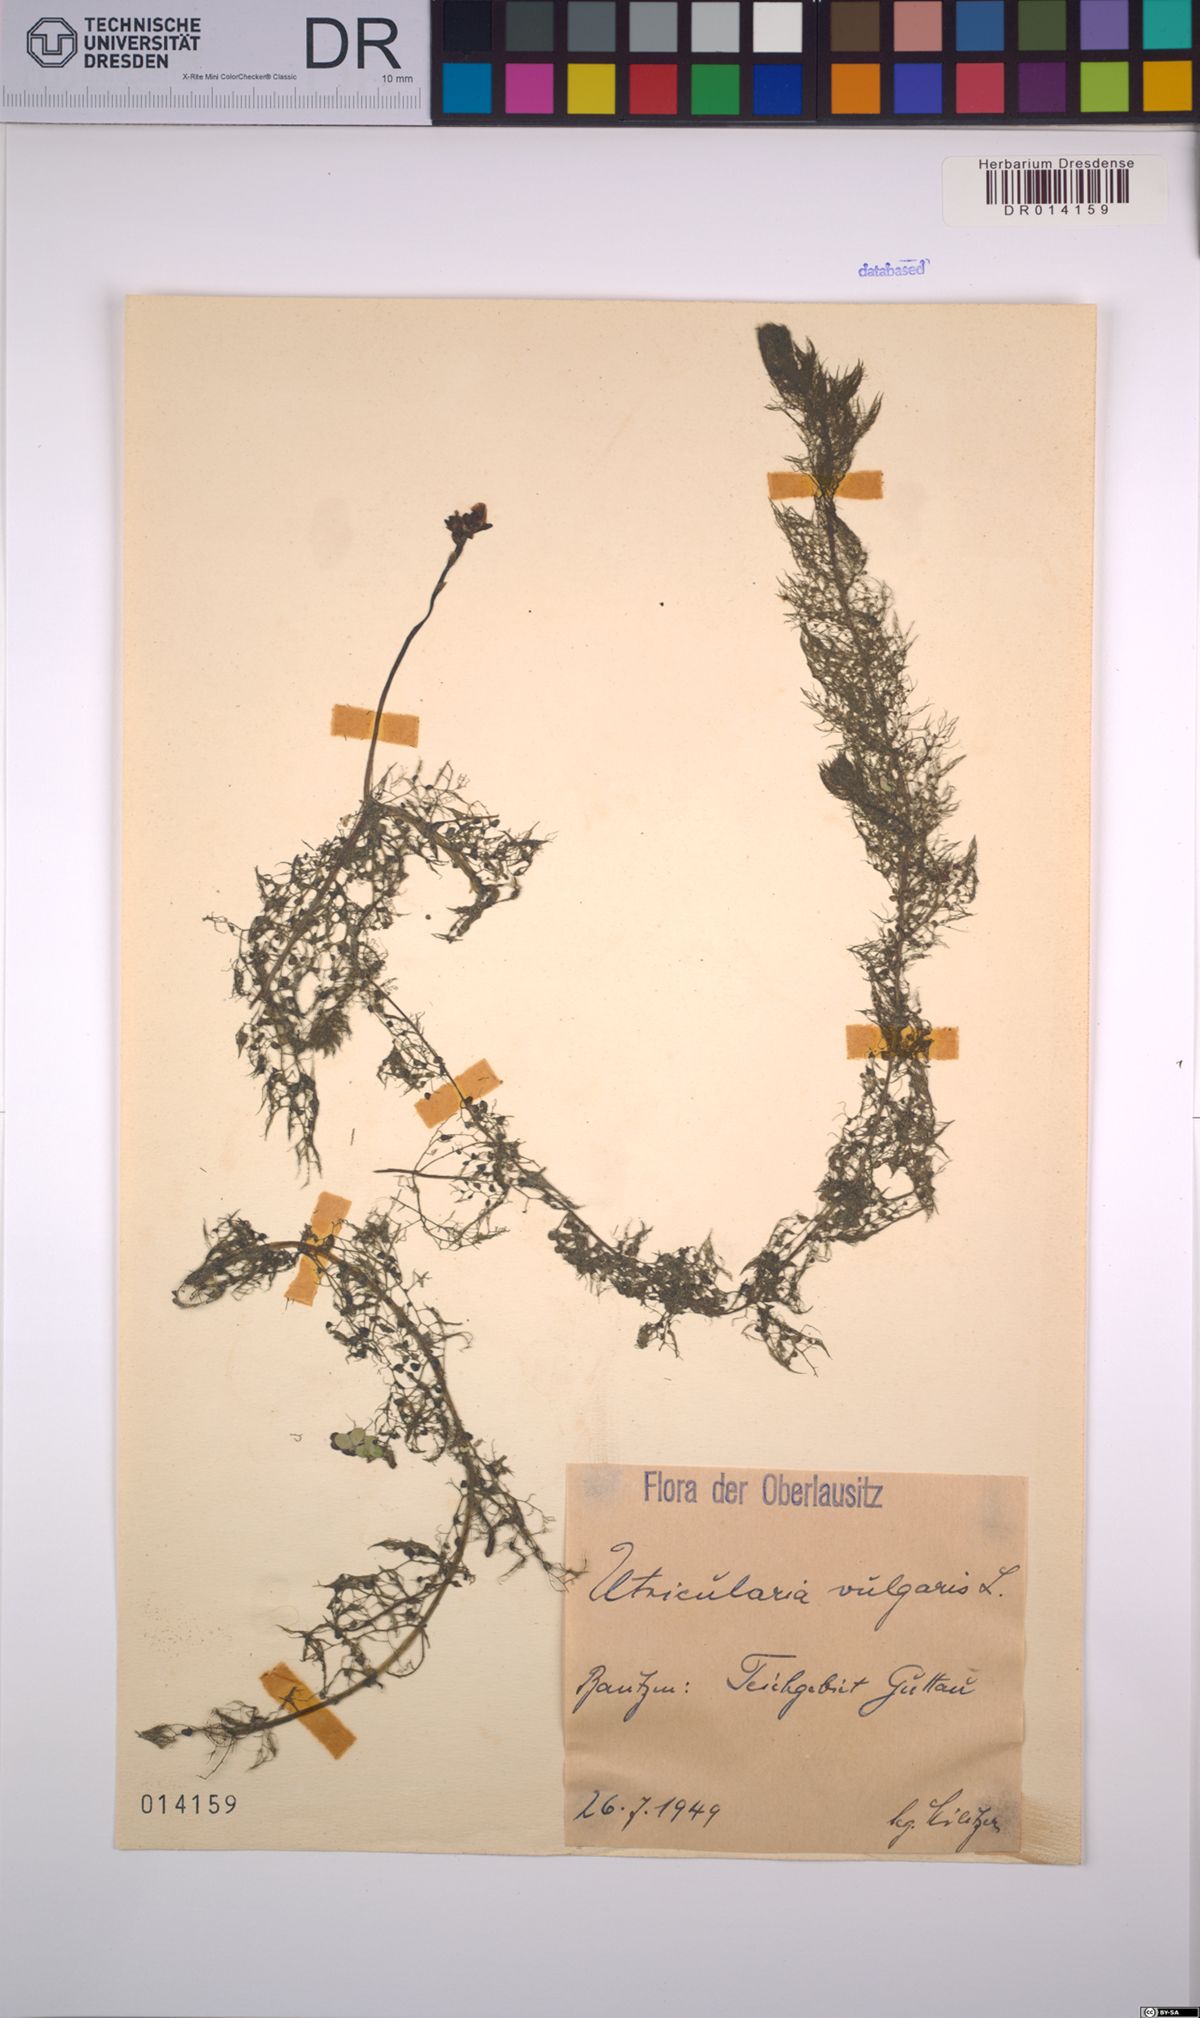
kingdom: Plantae
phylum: Tracheophyta
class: Magnoliopsida
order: Lamiales
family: Lentibulariaceae
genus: Utricularia
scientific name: Utricularia vulgaris
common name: Greater bladderwort
